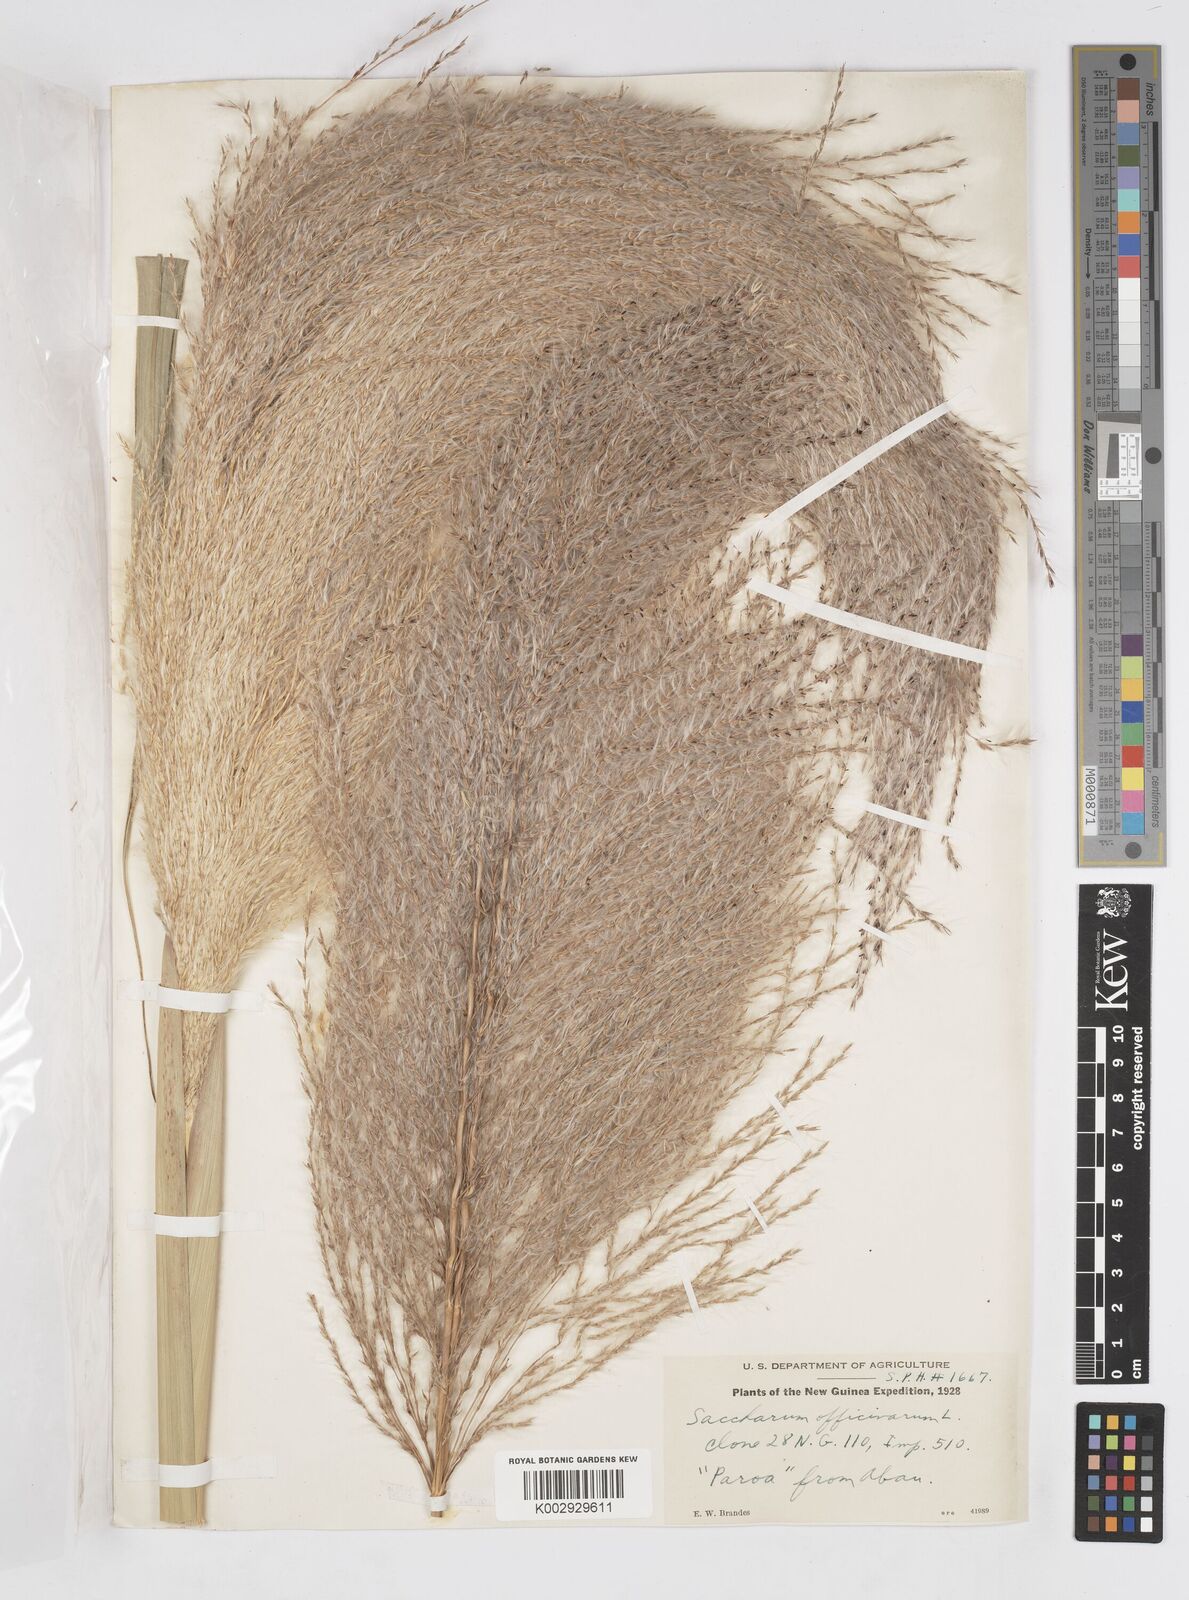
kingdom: Plantae
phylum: Tracheophyta
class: Liliopsida
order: Poales
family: Poaceae
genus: Saccharum
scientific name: Saccharum officinarum
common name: Sugarcane
